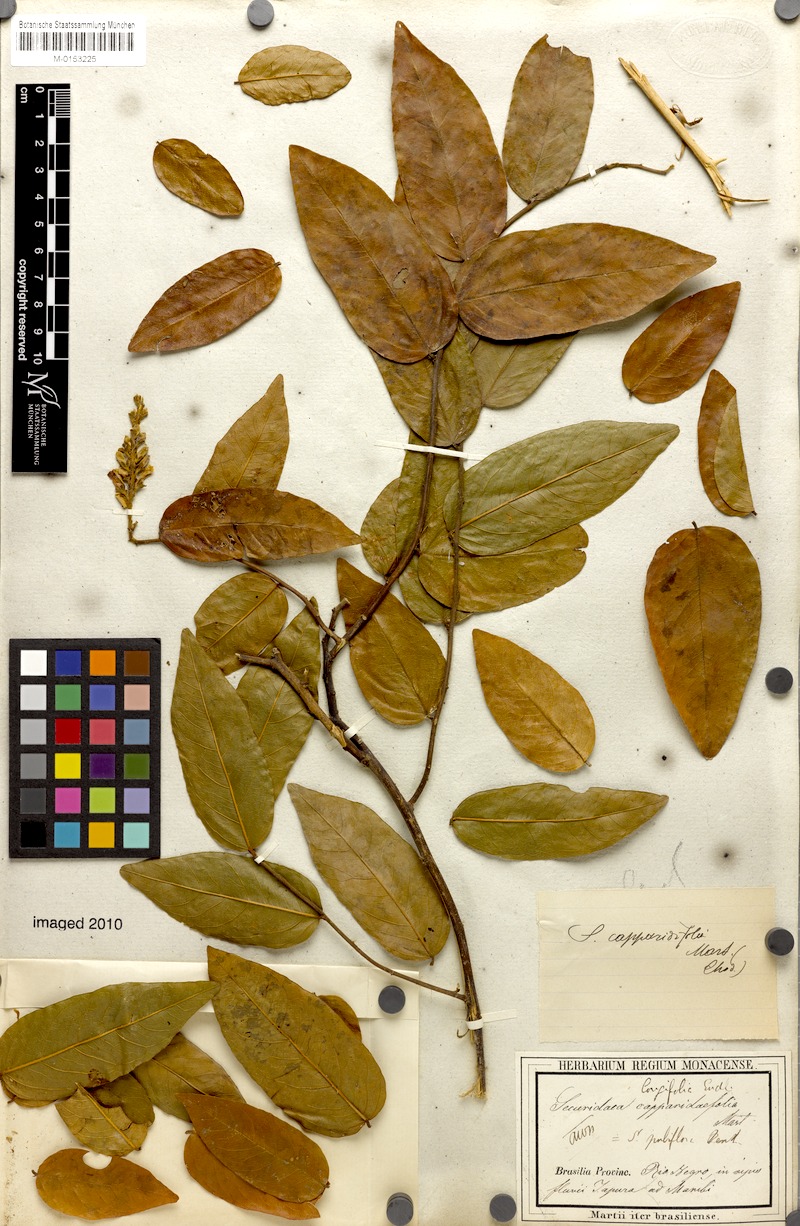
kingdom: Plantae
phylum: Tracheophyta
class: Magnoliopsida
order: Fabales
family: Polygalaceae
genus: Securidaca
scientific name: Securidaca longifolia
